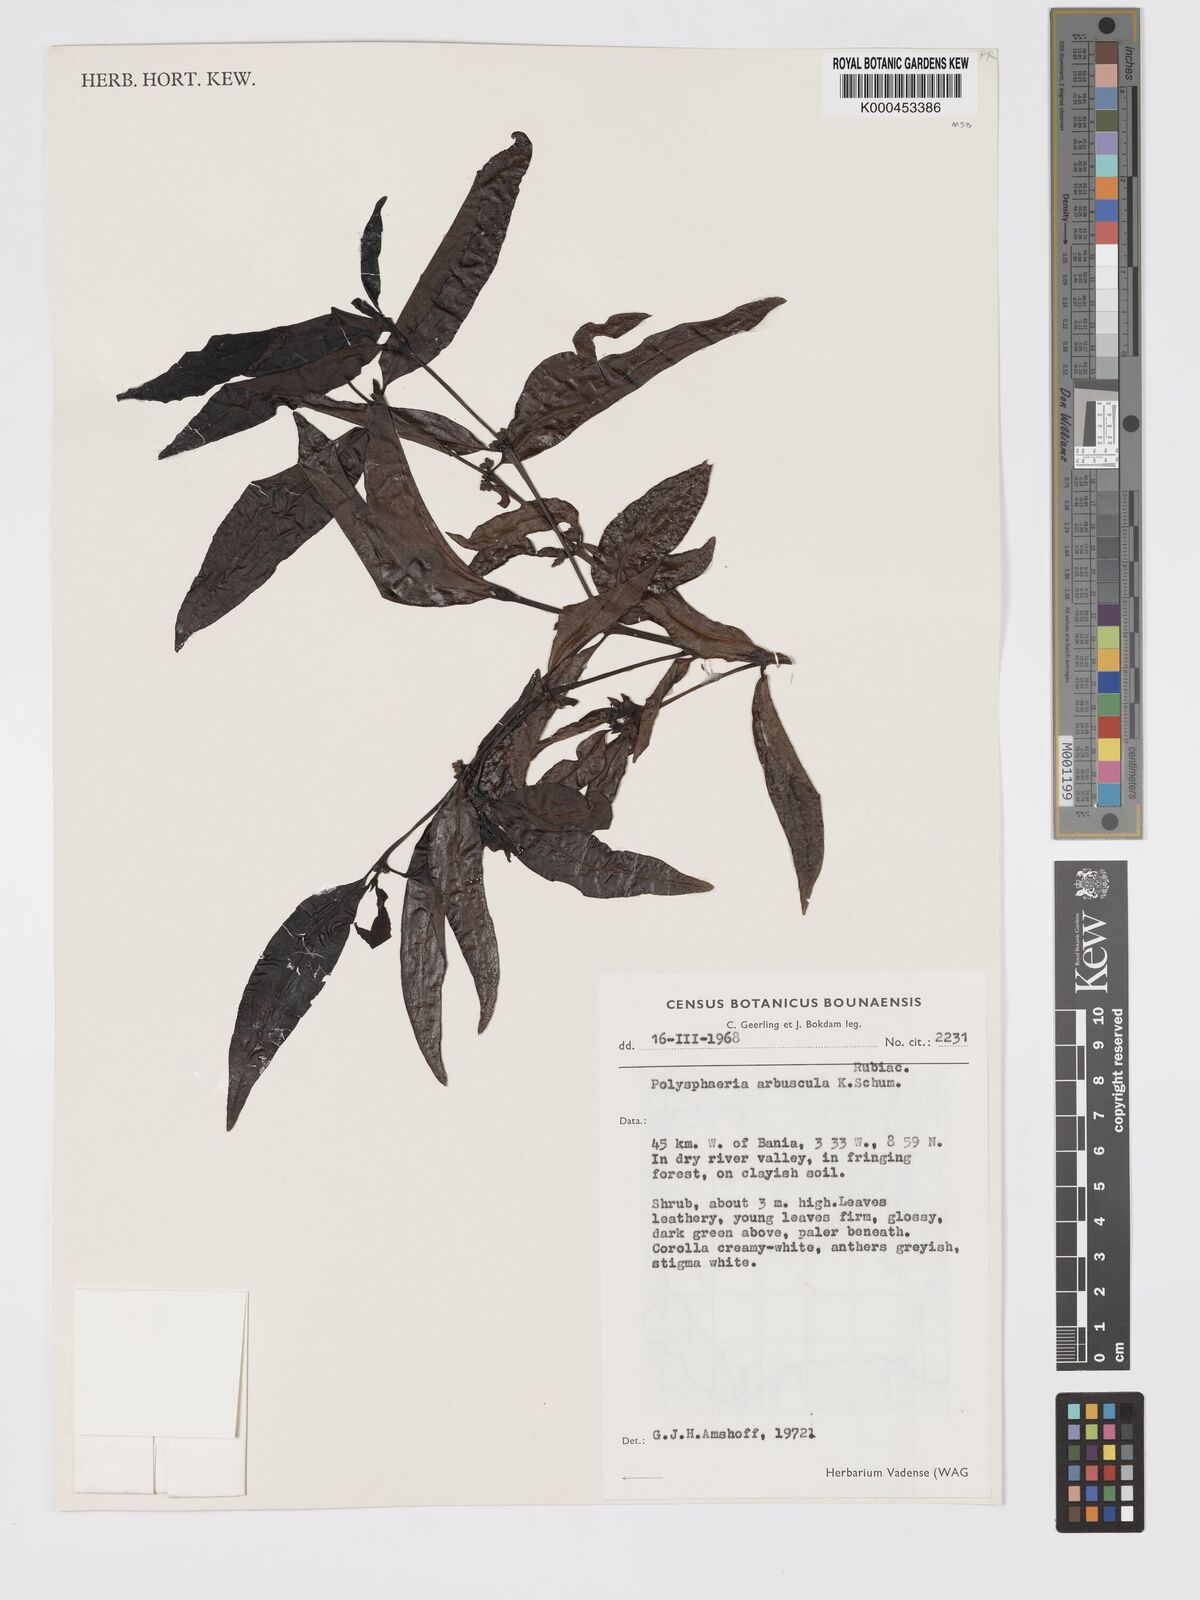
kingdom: Plantae
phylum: Tracheophyta
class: Magnoliopsida
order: Gentianales
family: Rubiaceae
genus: Polysphaeria
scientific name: Polysphaeria arbuscula
